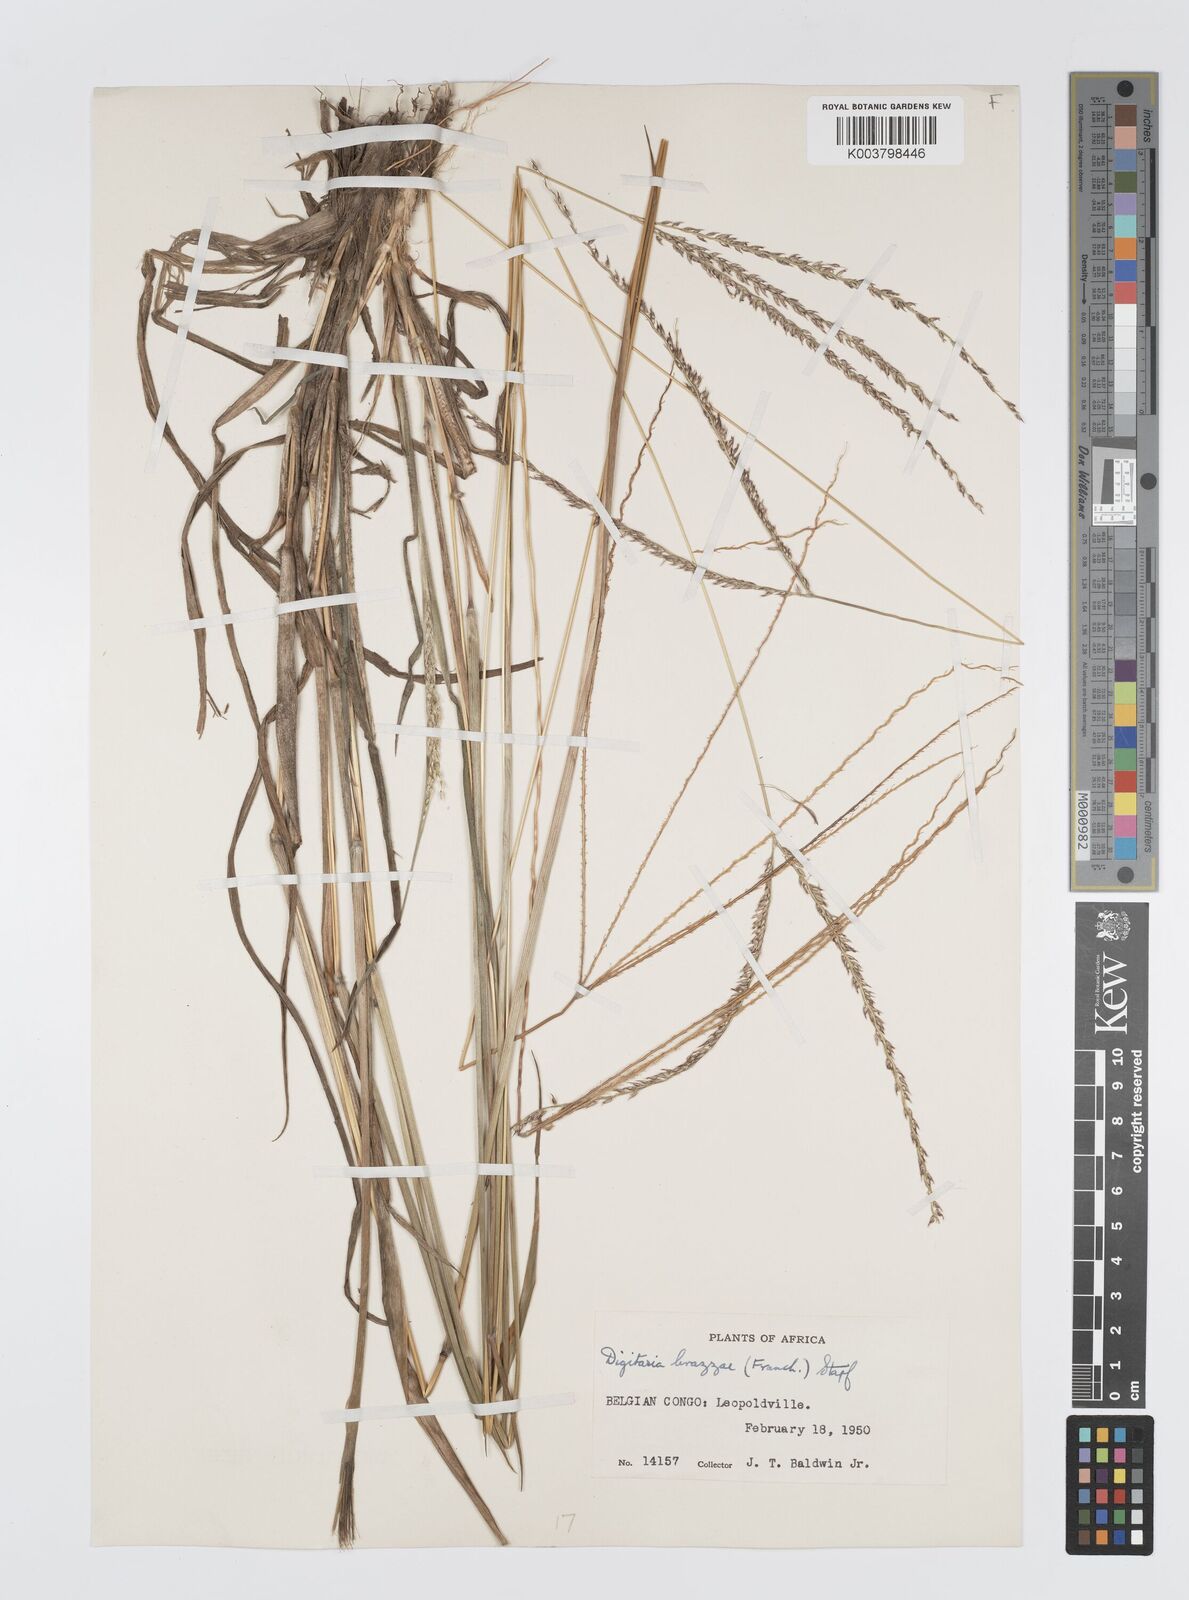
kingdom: Plantae
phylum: Tracheophyta
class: Liliopsida
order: Poales
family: Poaceae
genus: Digitaria
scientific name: Digitaria brazzae
